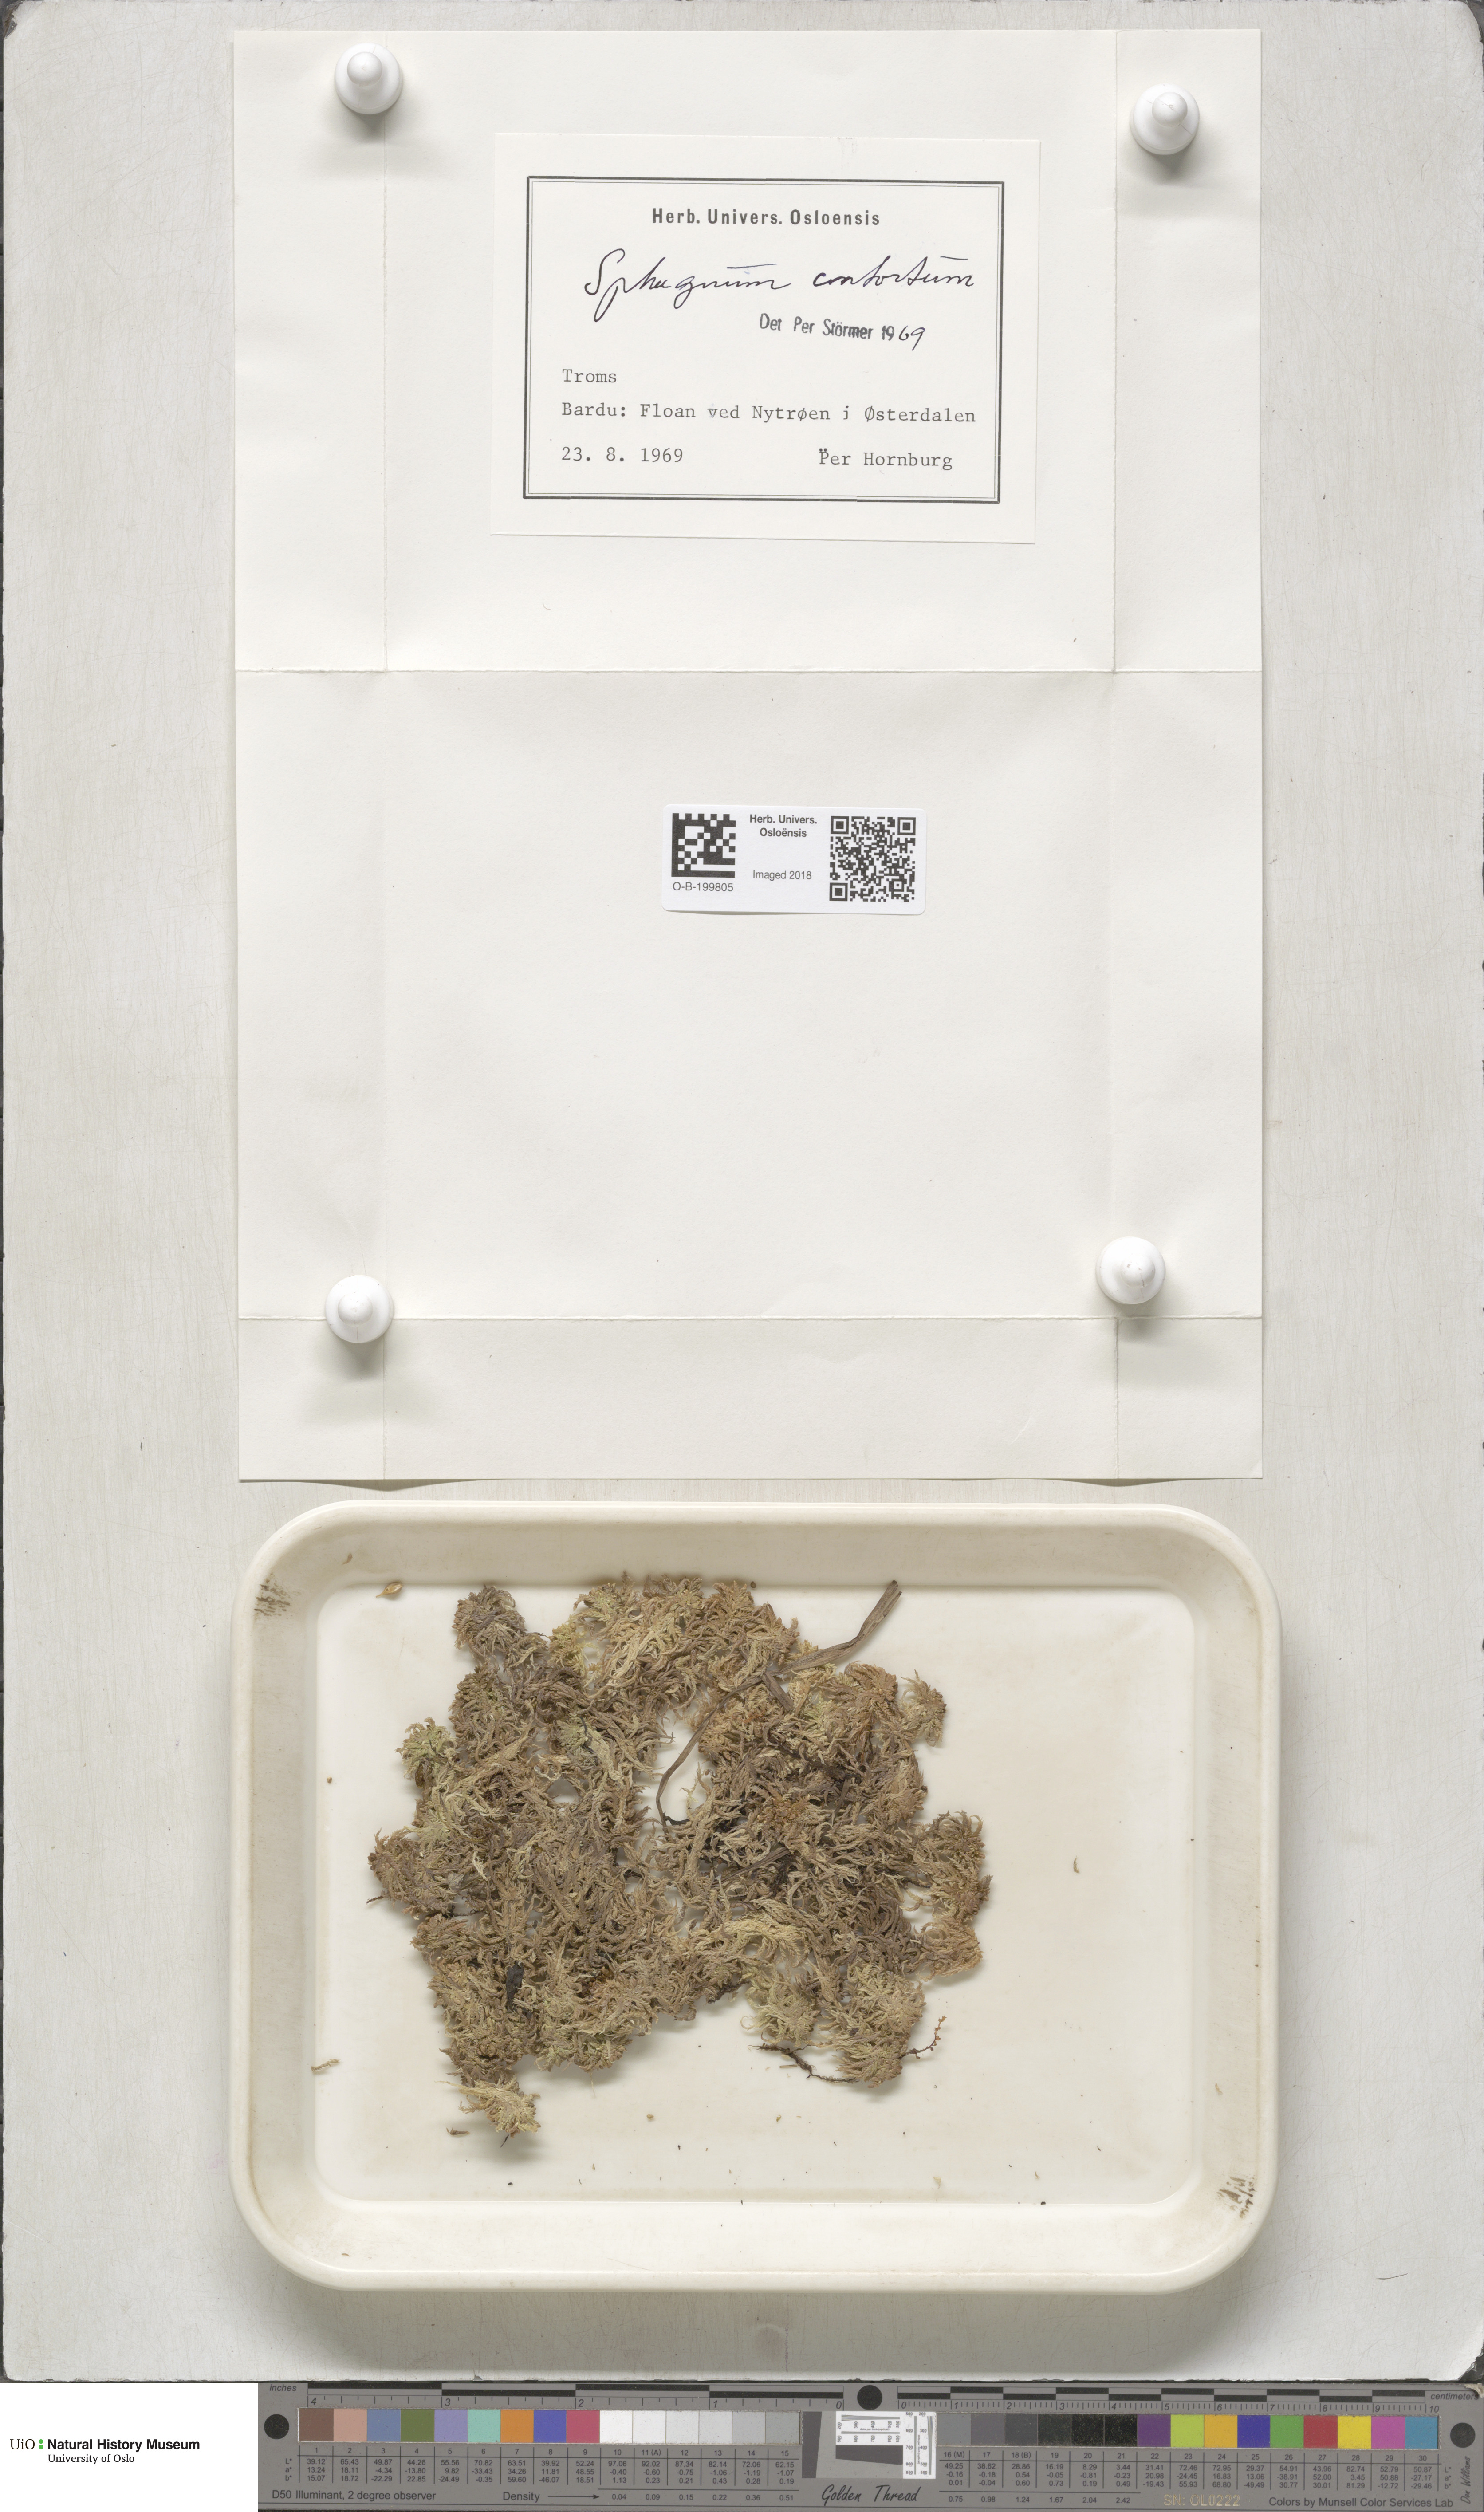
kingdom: Plantae
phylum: Bryophyta
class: Sphagnopsida
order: Sphagnales
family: Sphagnaceae
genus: Sphagnum
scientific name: Sphagnum contortum
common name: Twisted peat moss
